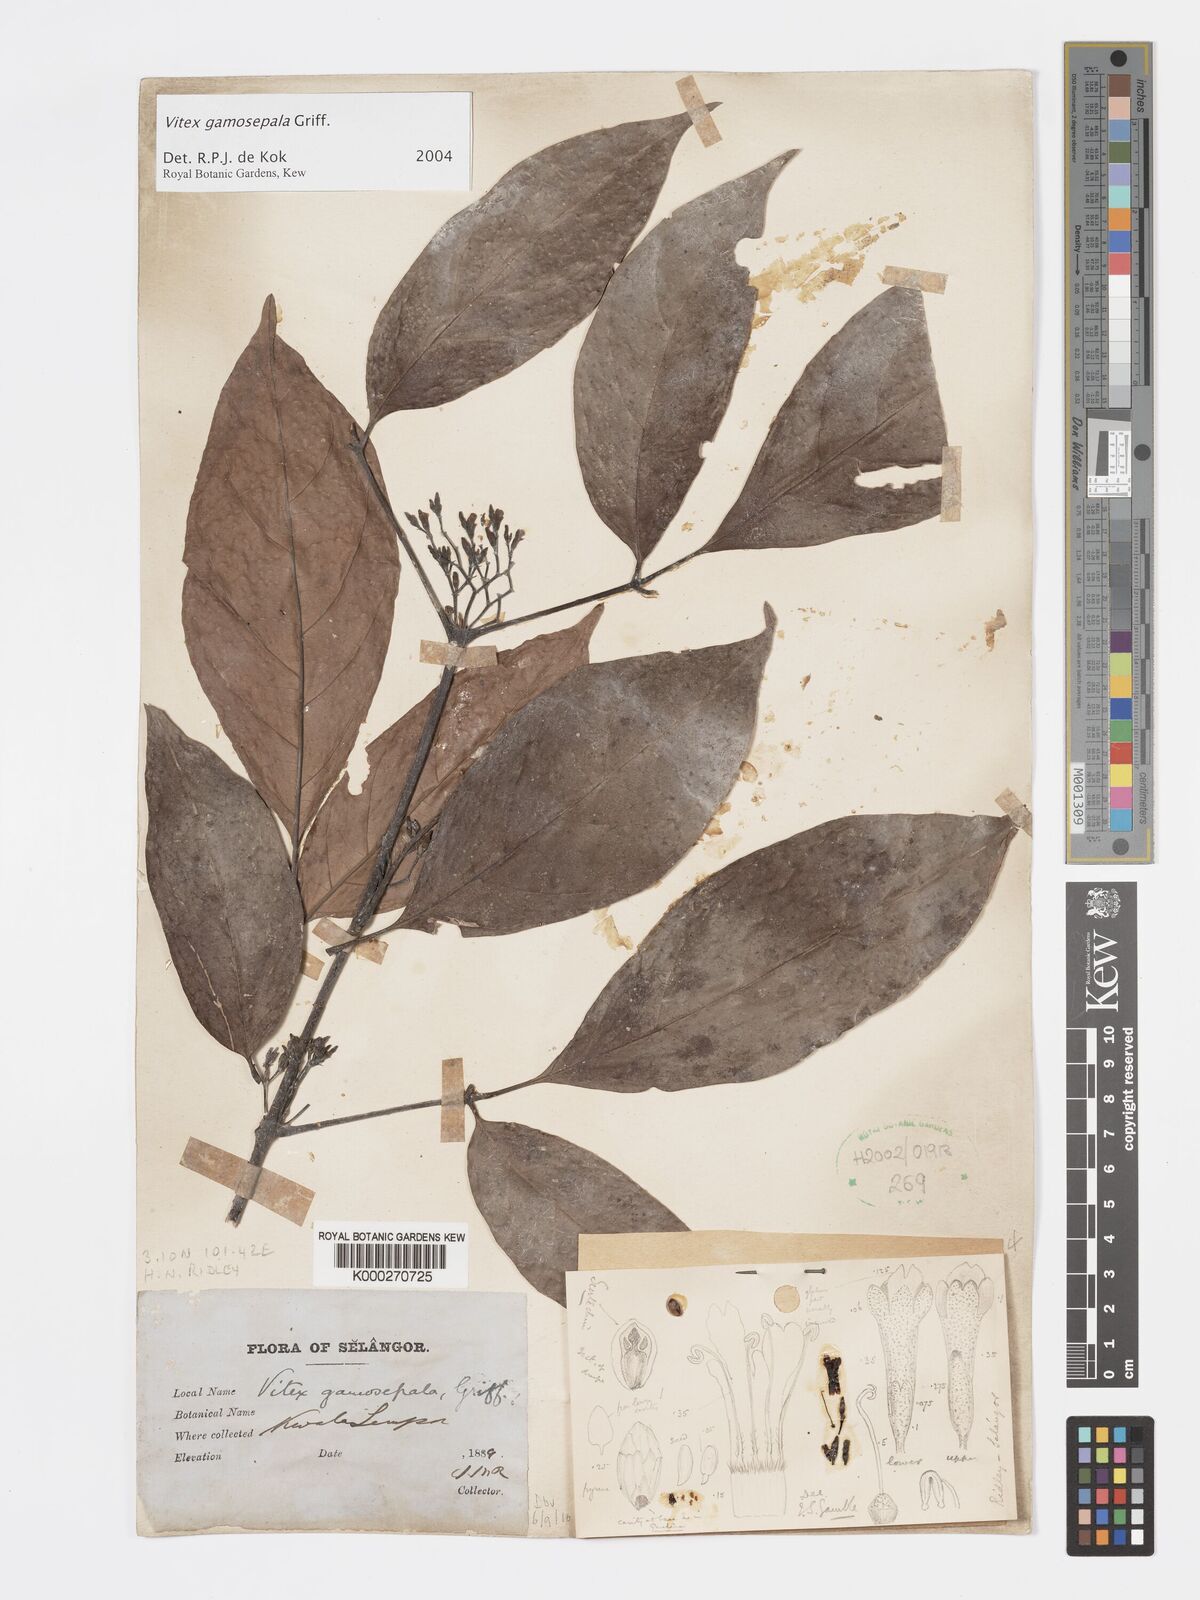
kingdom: Plantae
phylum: Tracheophyta
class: Magnoliopsida
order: Lamiales
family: Lamiaceae
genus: Vitex
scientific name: Vitex gamosepala
